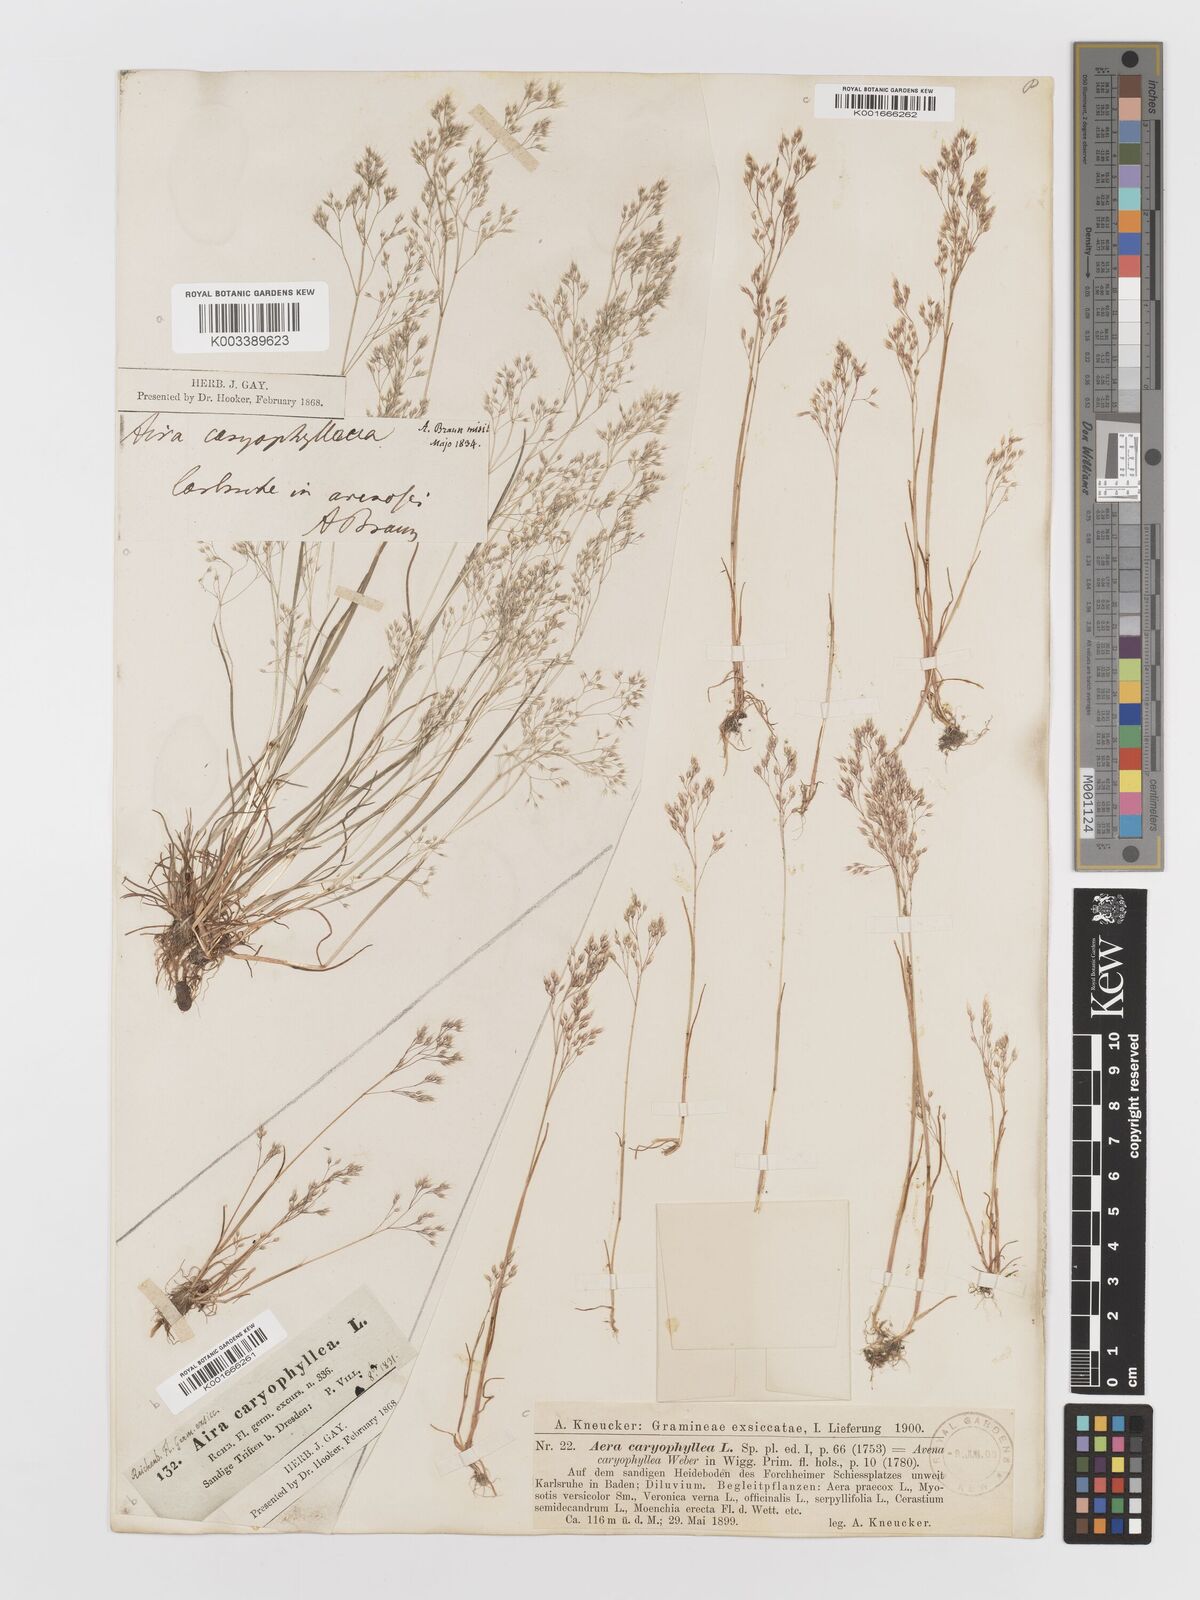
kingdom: Plantae
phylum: Tracheophyta
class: Liliopsida
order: Poales
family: Poaceae
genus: Aira
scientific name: Aira caryophyllea
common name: Silver hairgrass
